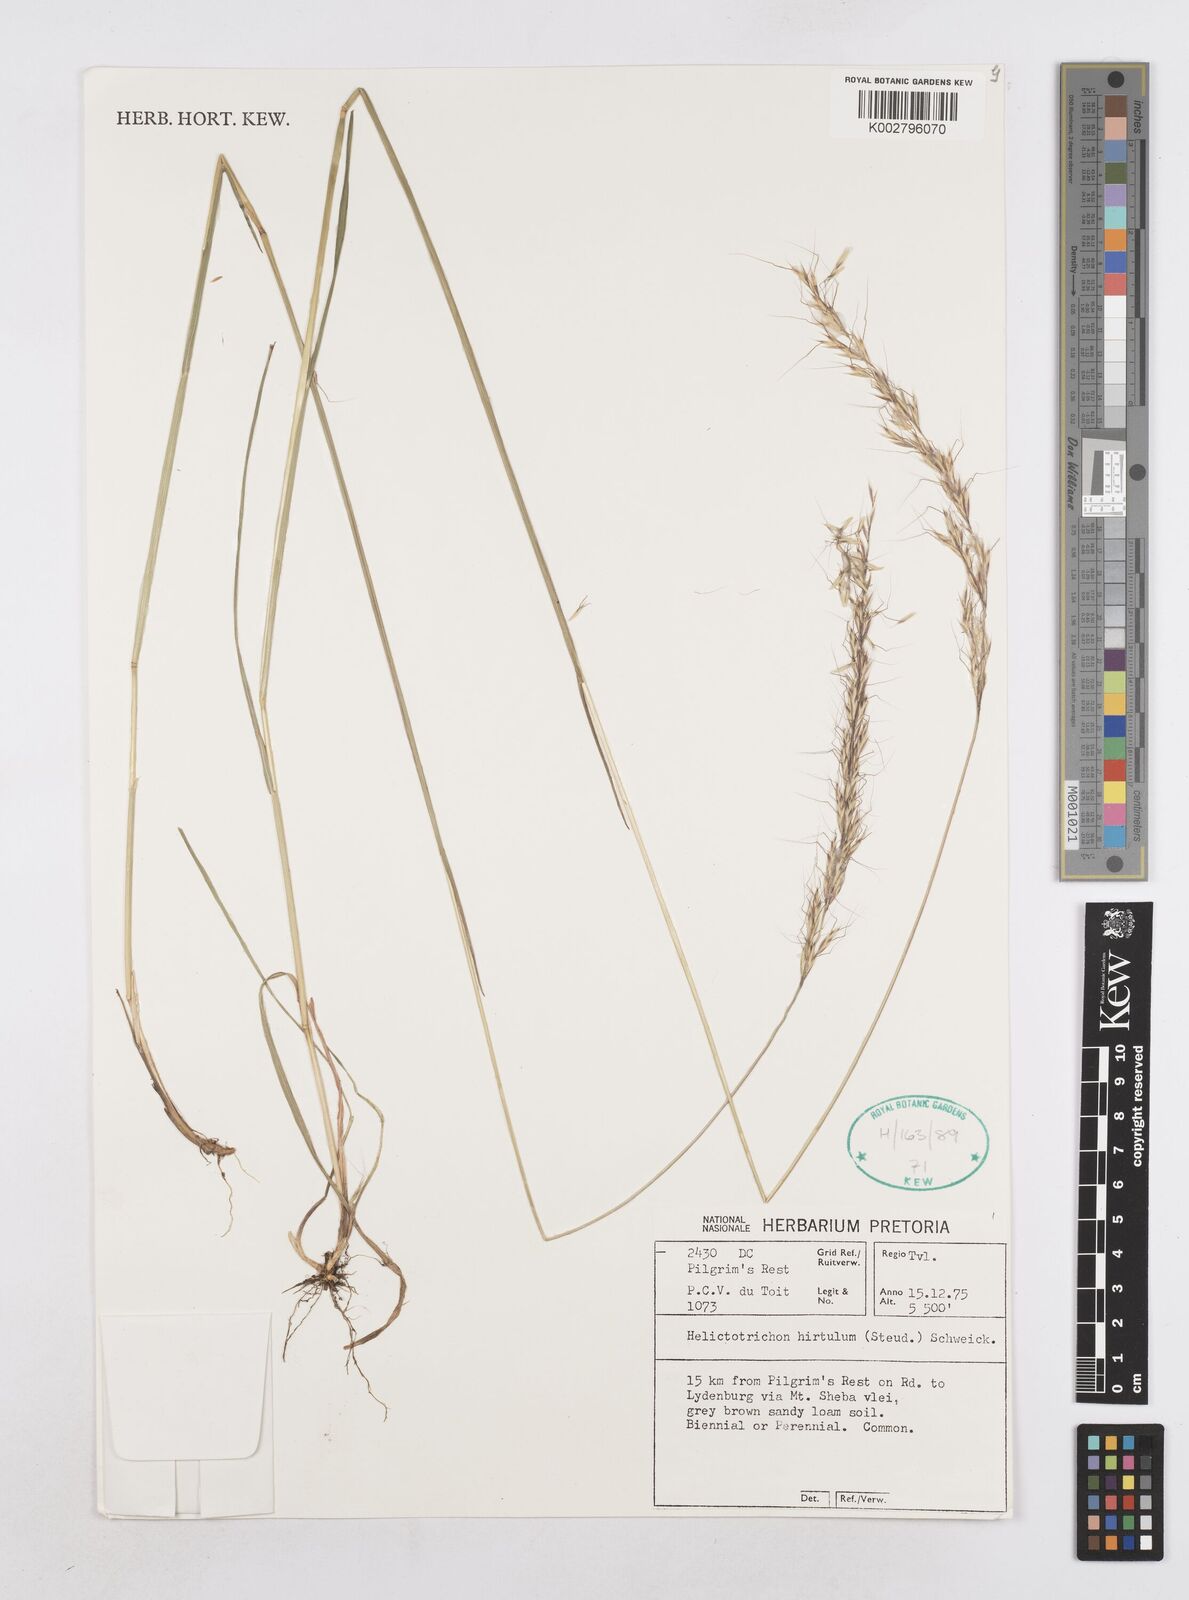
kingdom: Plantae
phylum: Tracheophyta
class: Liliopsida
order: Poales
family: Poaceae
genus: Trisetopsis
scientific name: Trisetopsis hirtula
